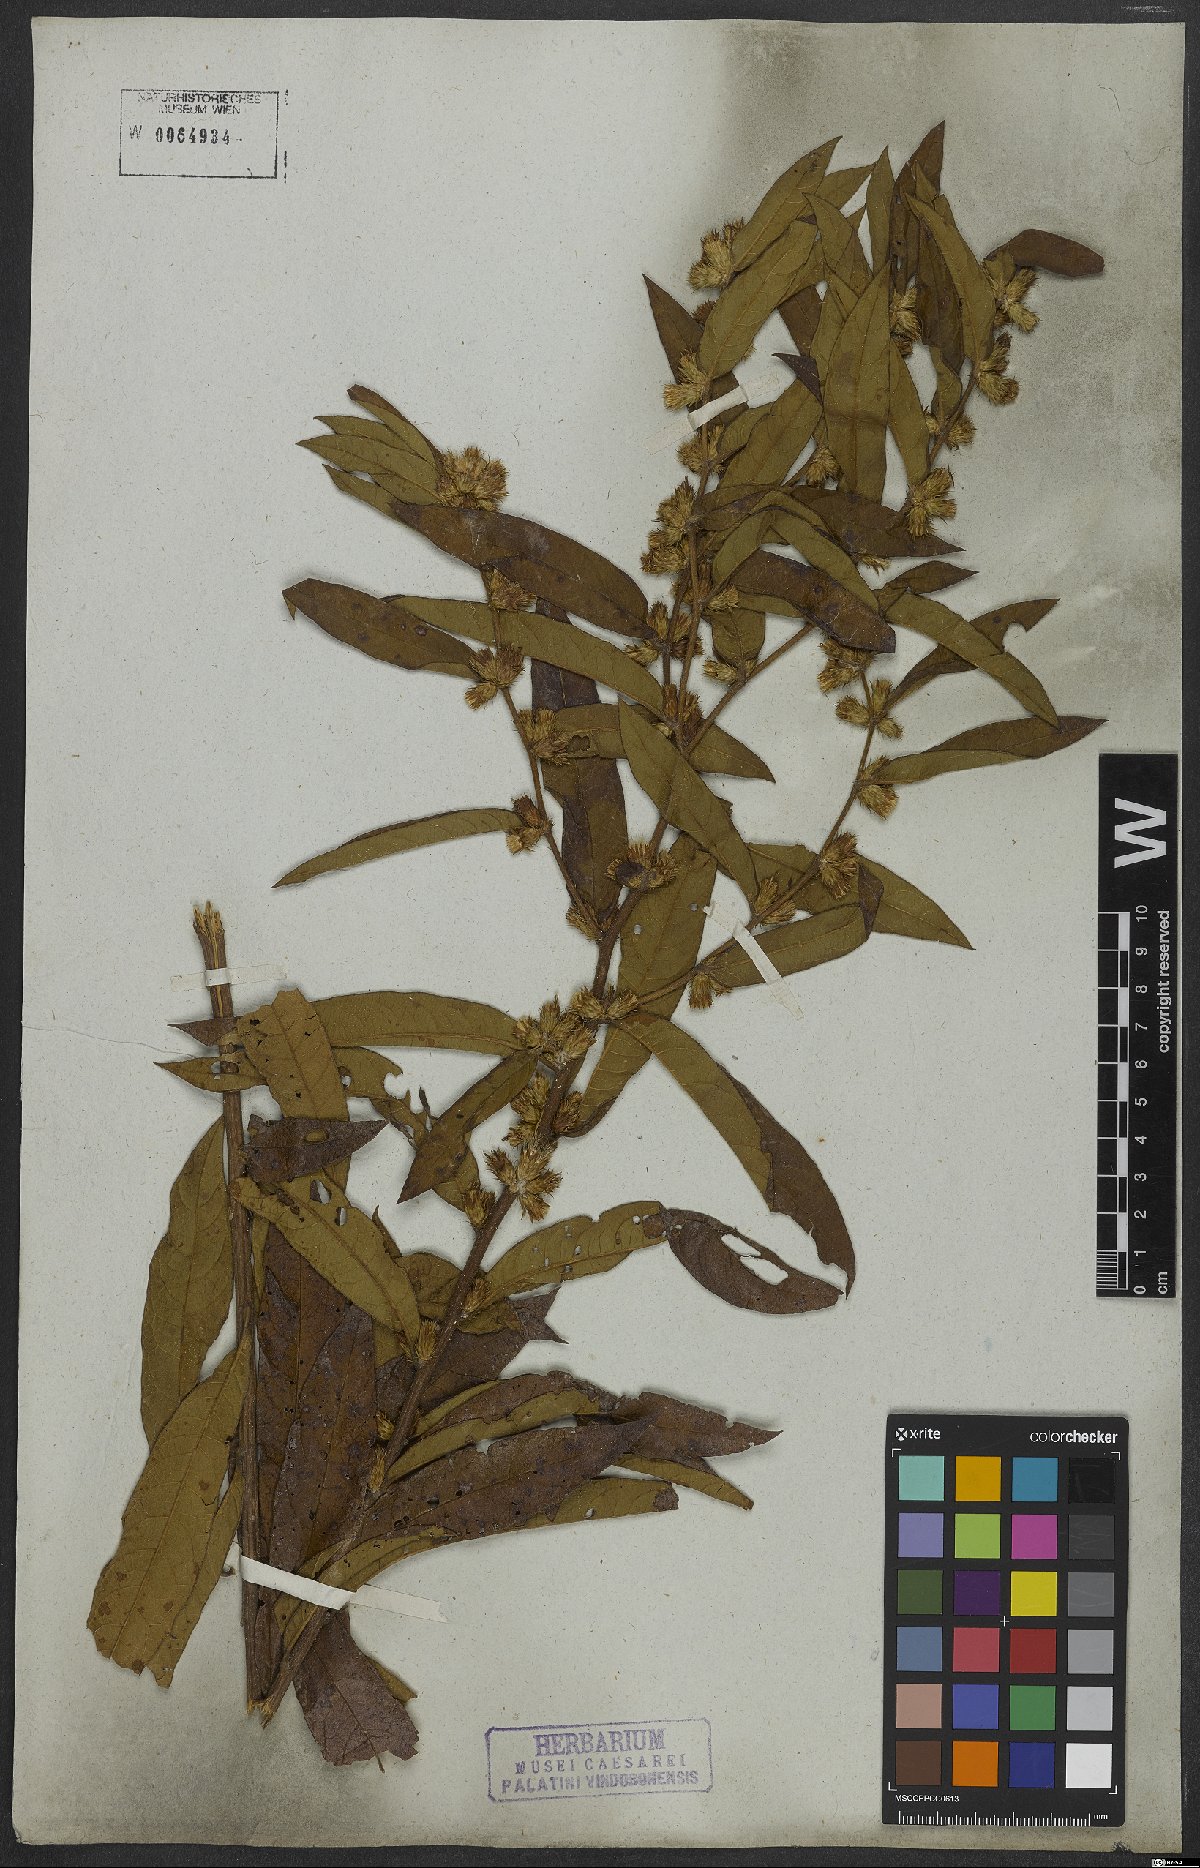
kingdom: Plantae
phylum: Tracheophyta
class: Magnoliopsida
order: Asterales
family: Asteraceae
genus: Lessingianthus
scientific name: Lessingianthus syncephalus
